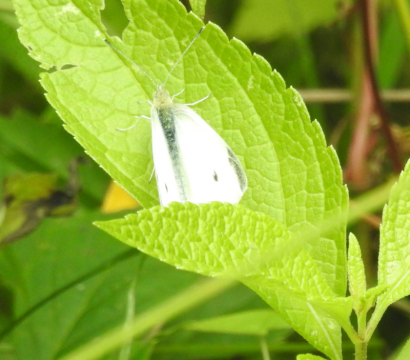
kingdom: Animalia
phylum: Arthropoda
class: Insecta
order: Lepidoptera
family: Pieridae
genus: Pieris
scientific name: Pieris rapae
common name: Cabbage White
